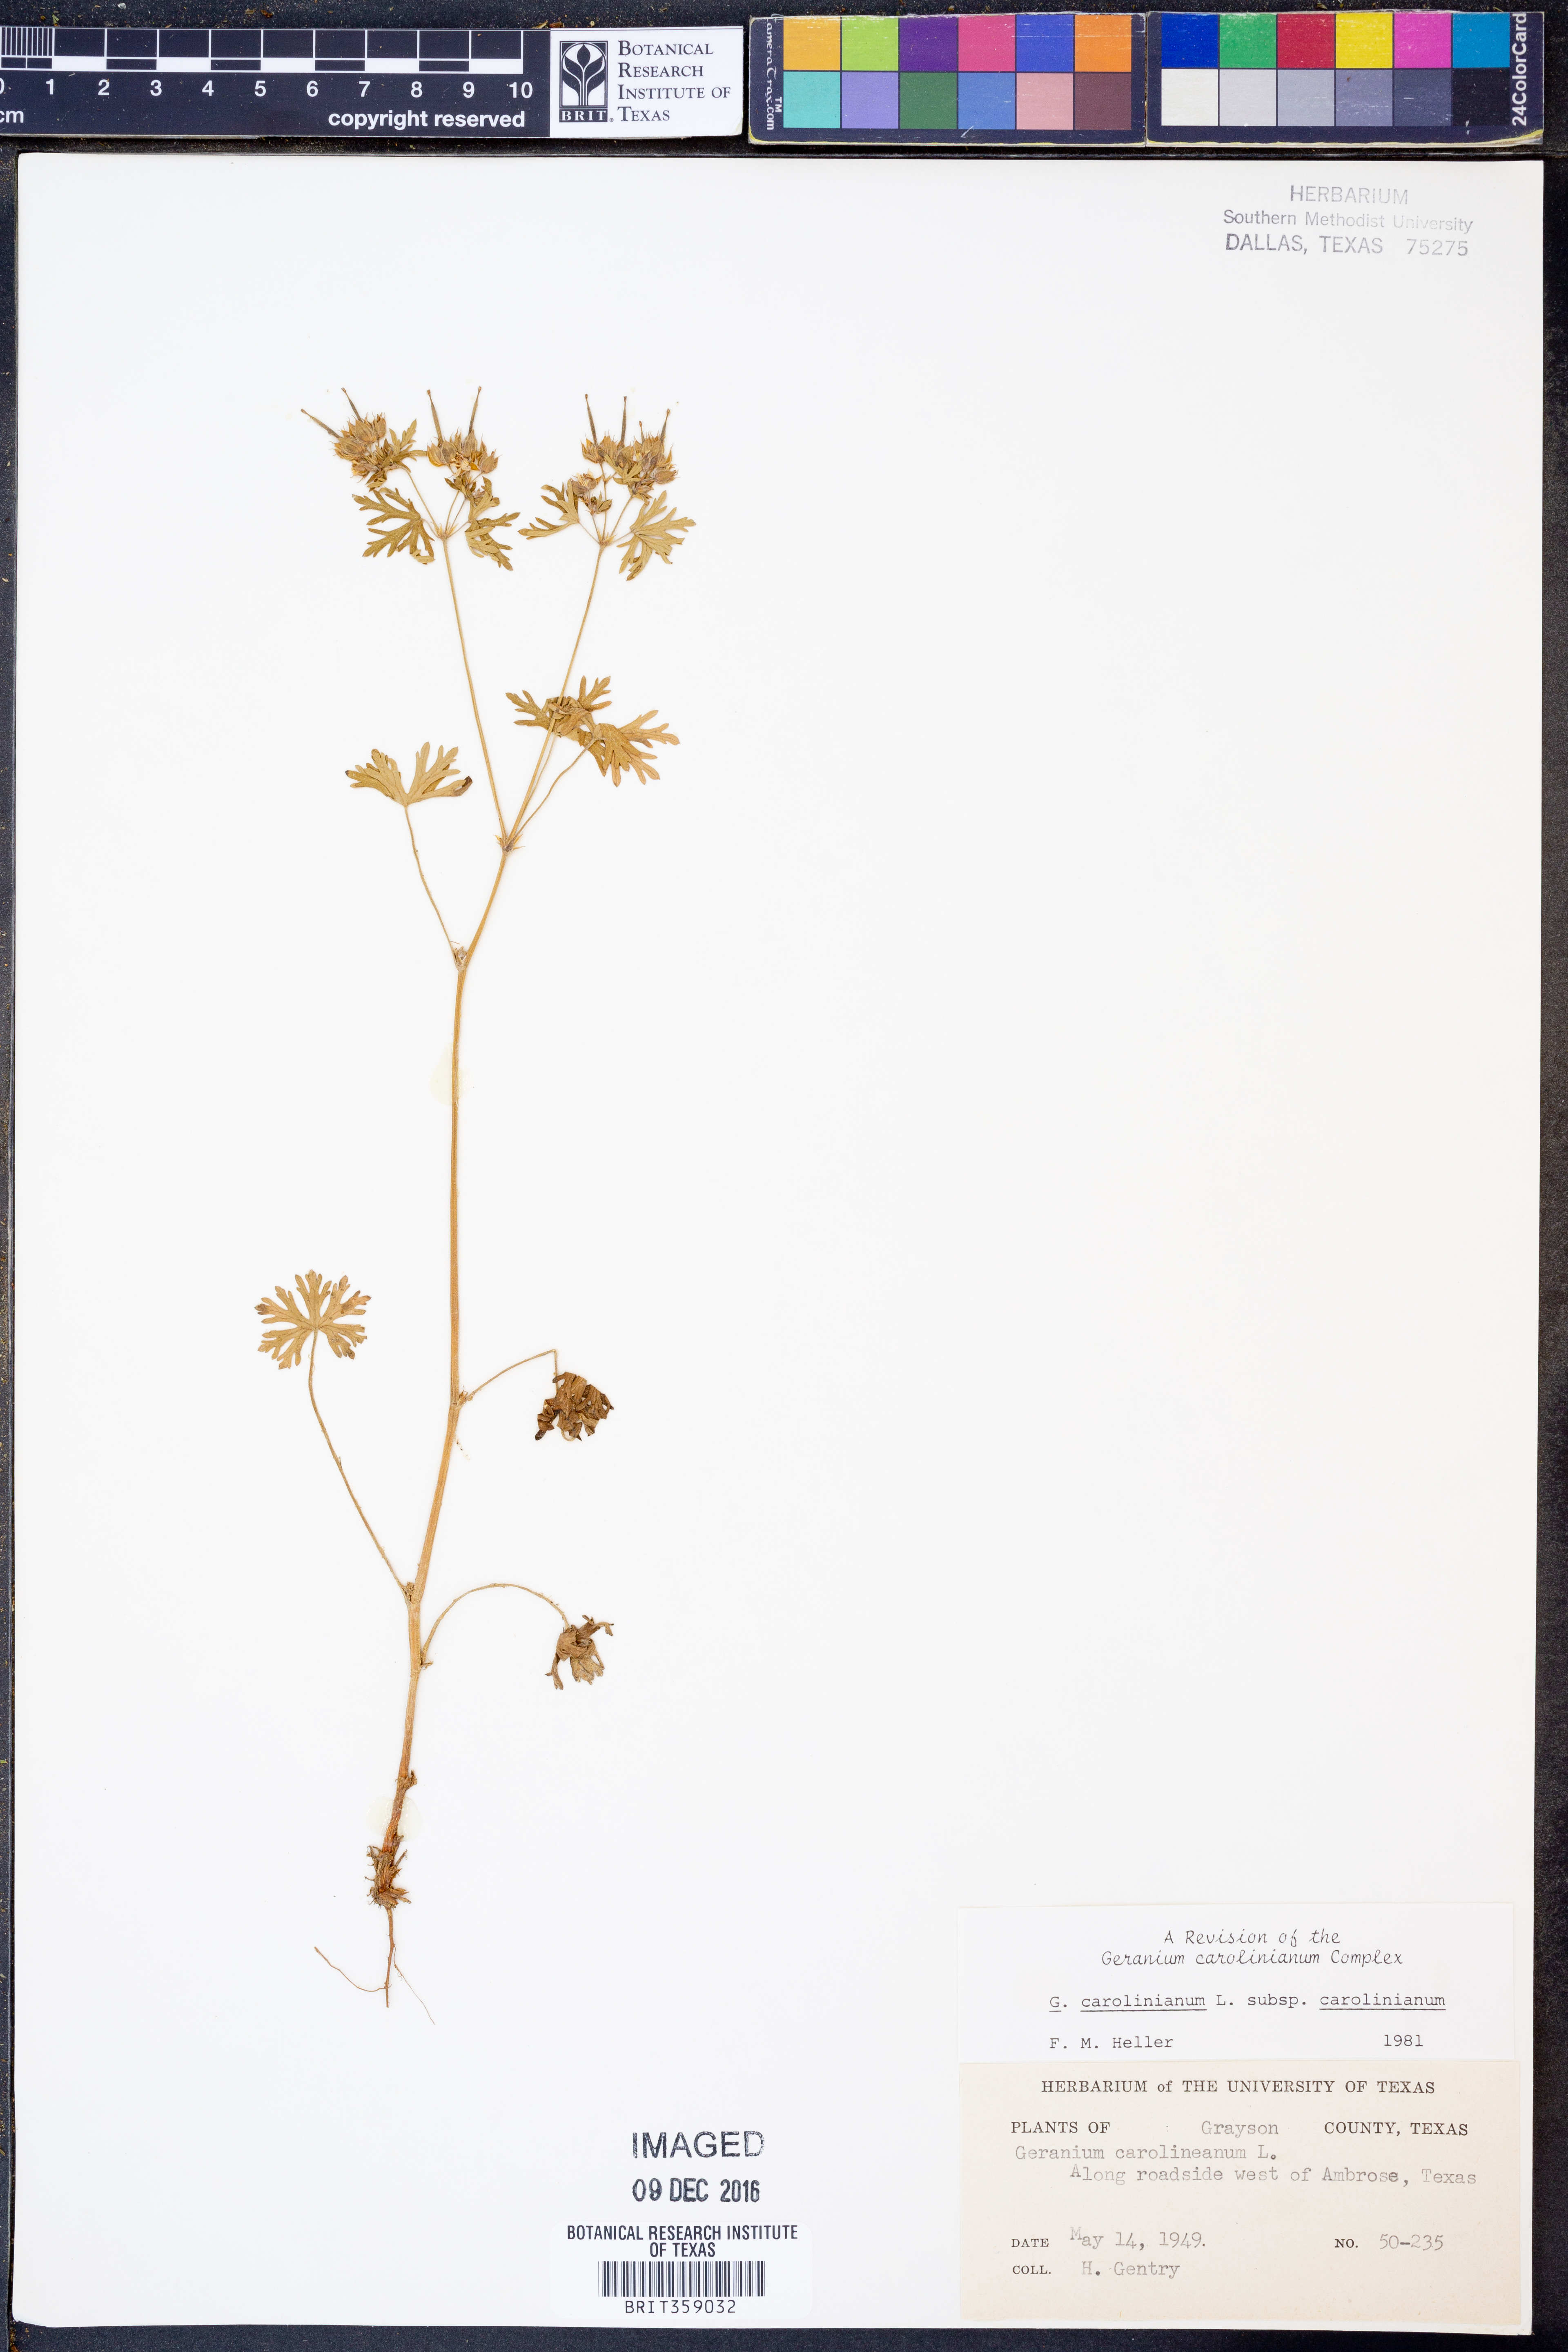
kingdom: Plantae
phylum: Tracheophyta
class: Magnoliopsida
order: Geraniales
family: Geraniaceae
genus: Geranium
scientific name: Geranium carolinianum
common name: Carolina crane's-bill
